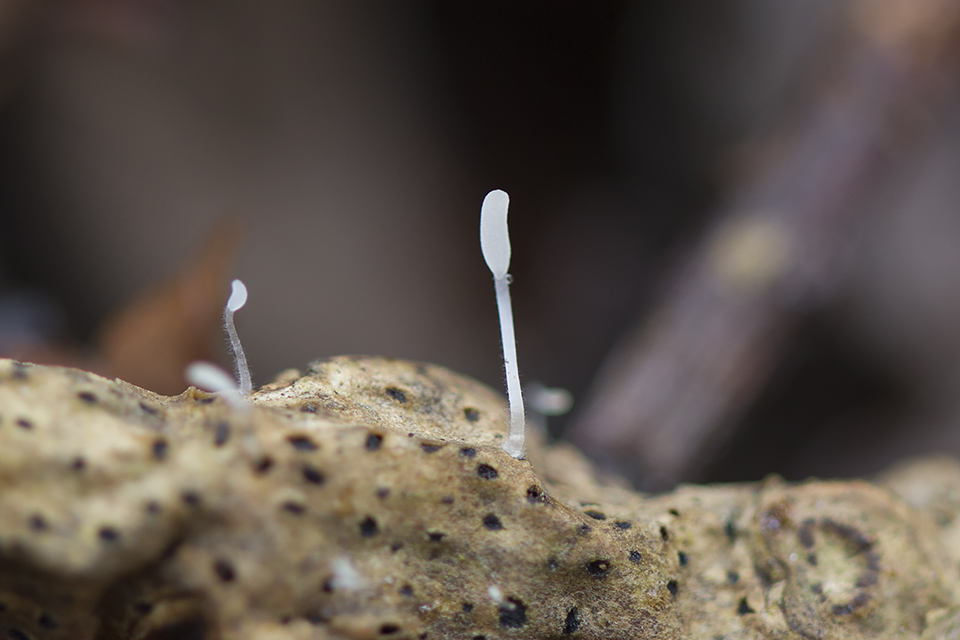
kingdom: Fungi
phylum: Basidiomycota
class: Agaricomycetes
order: Agaricales
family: Typhulaceae
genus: Typhula
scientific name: Typhula spathulata
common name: aske-trådkølle
